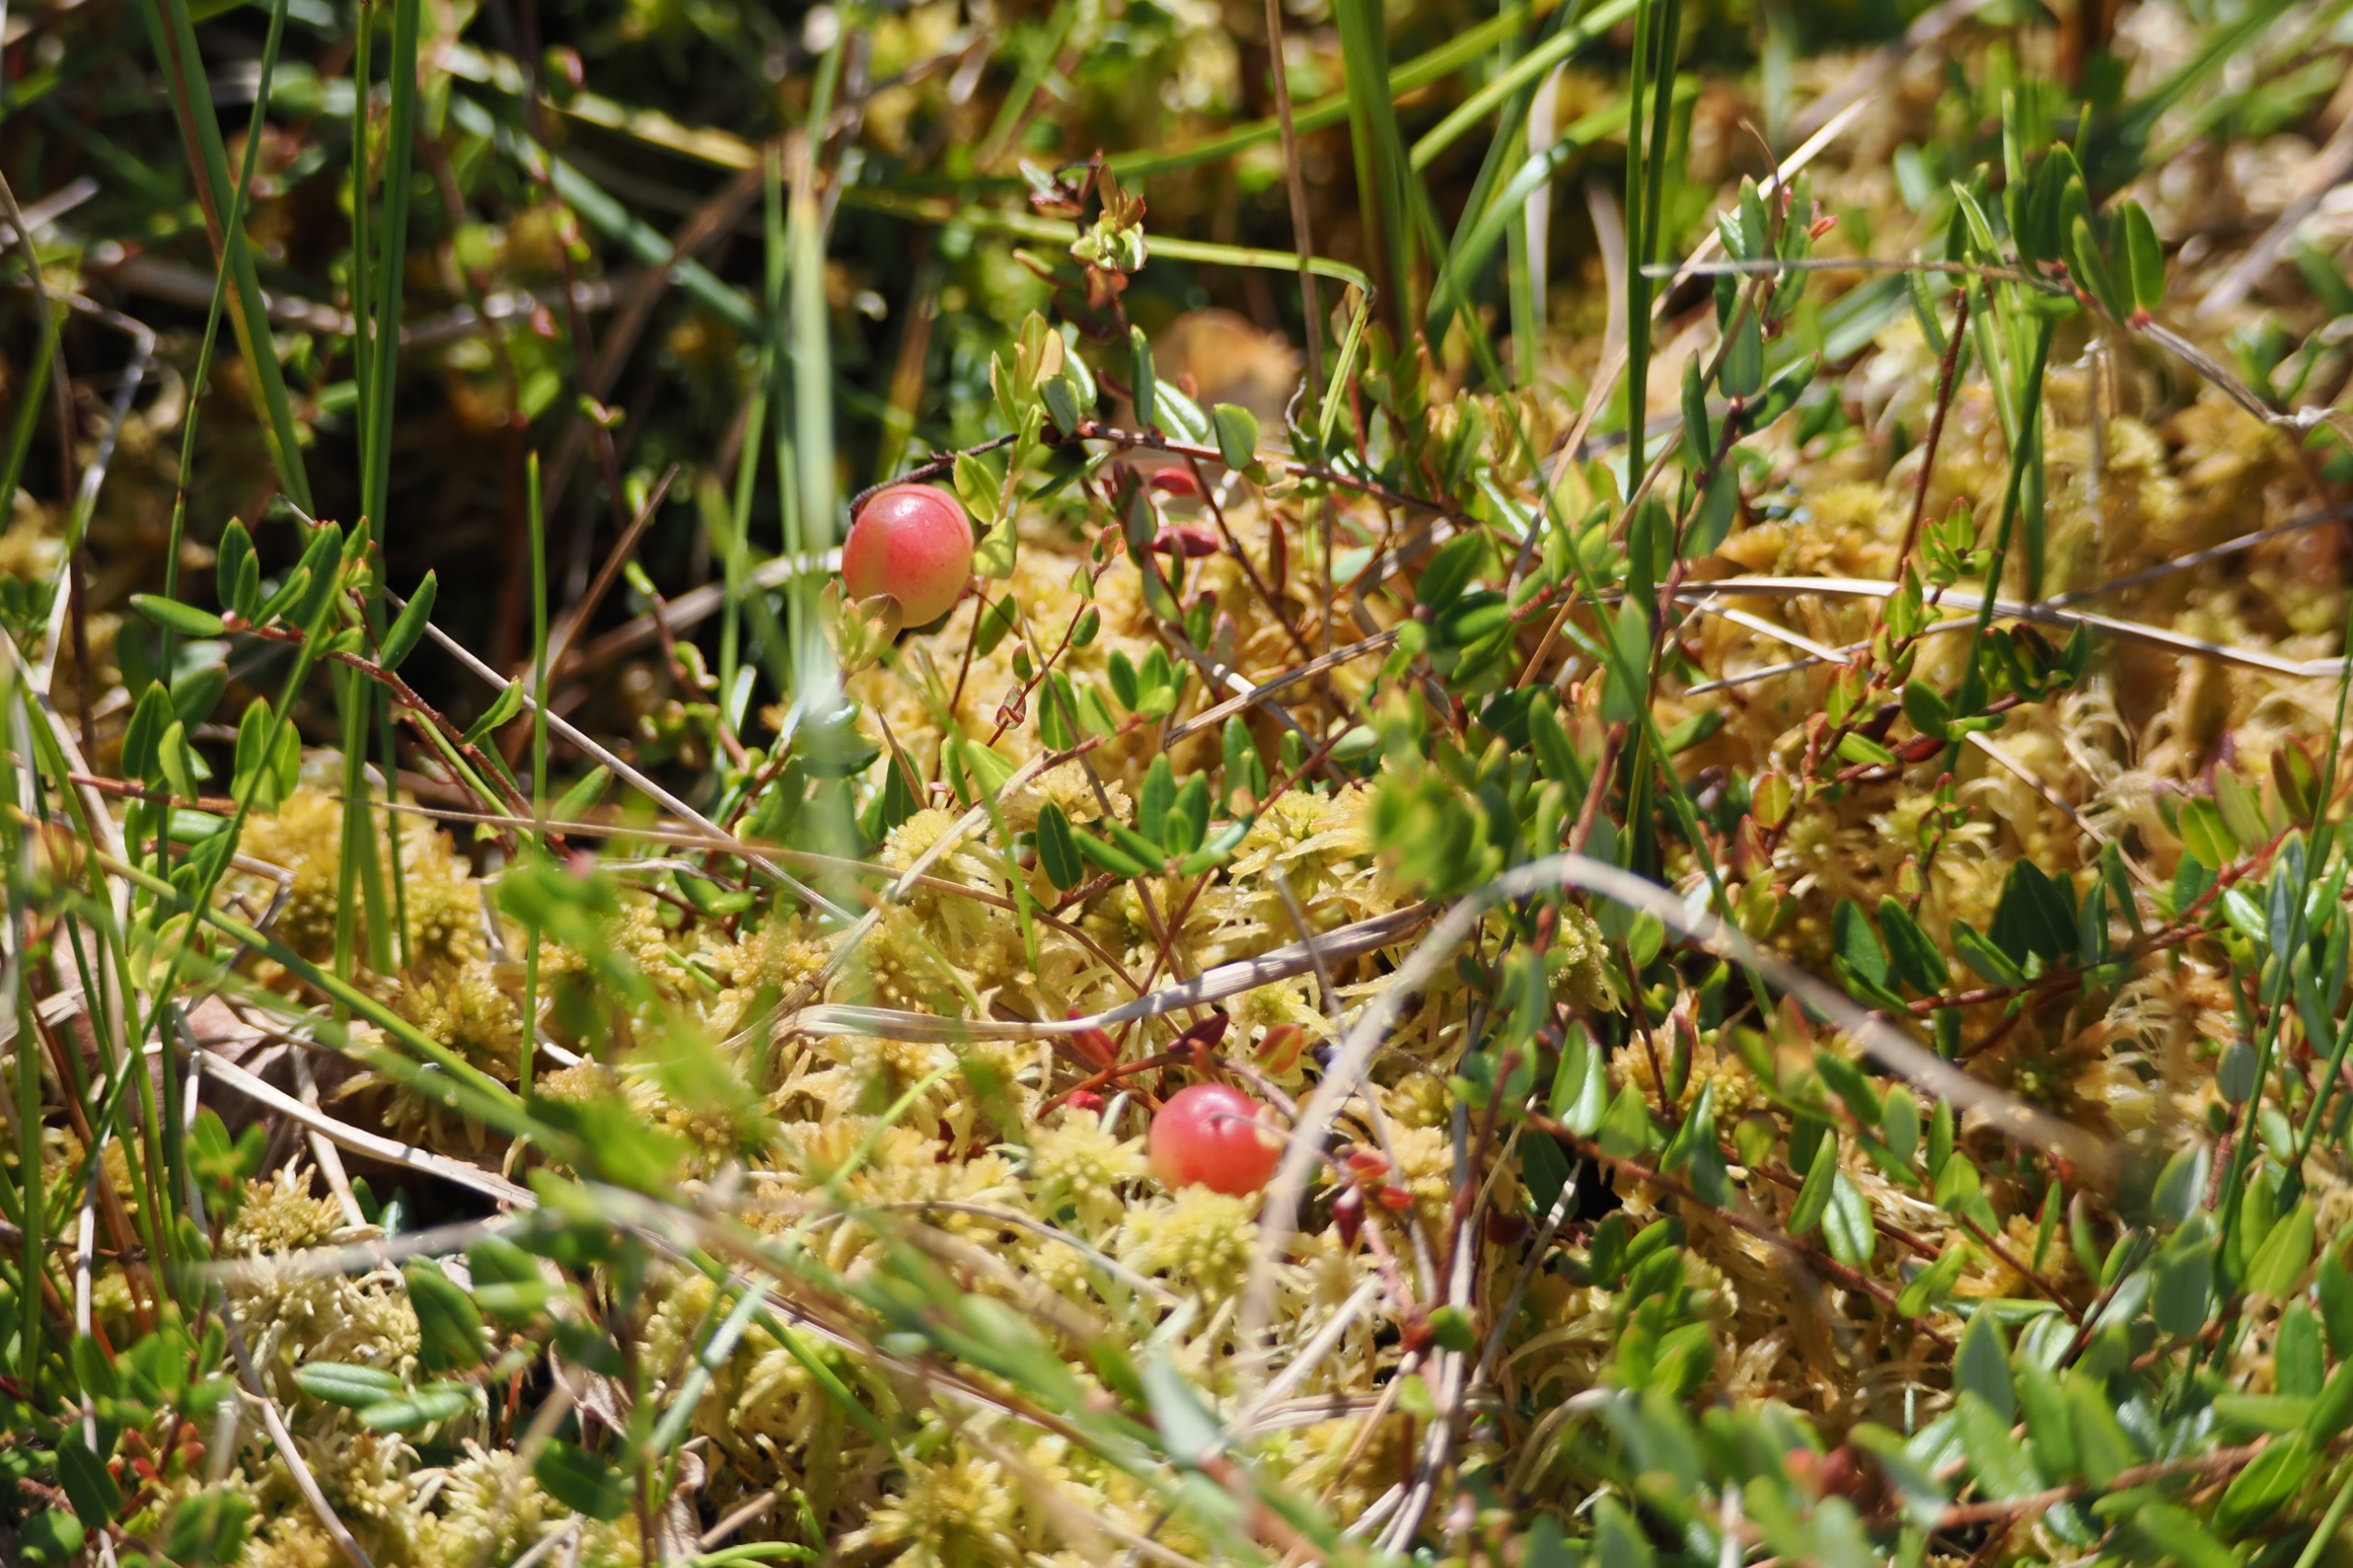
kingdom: Plantae
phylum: Tracheophyta
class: Magnoliopsida
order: Ericales
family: Ericaceae
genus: Vaccinium
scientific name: Vaccinium oxycoccos
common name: Tranebær
